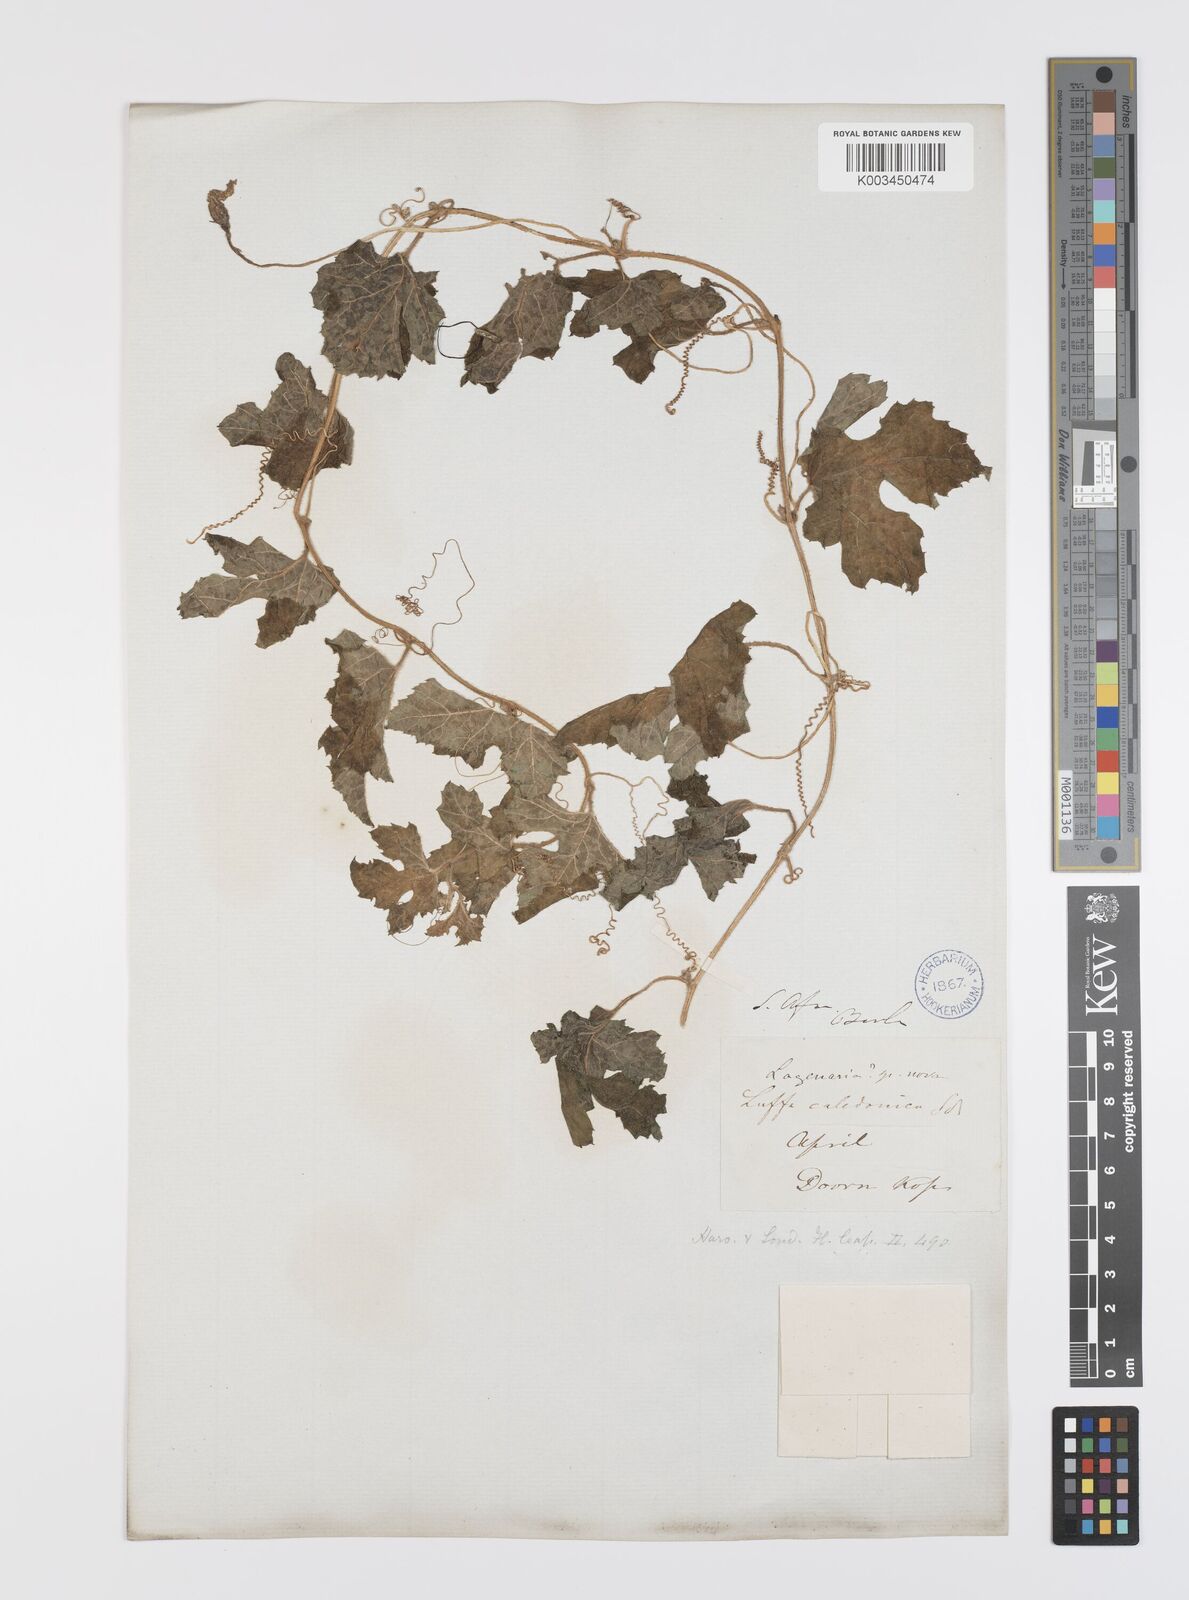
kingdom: Plantae
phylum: Tracheophyta
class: Magnoliopsida
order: Cucurbitales
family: Cucurbitaceae
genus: Peponium
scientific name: Peponium caledonicum
